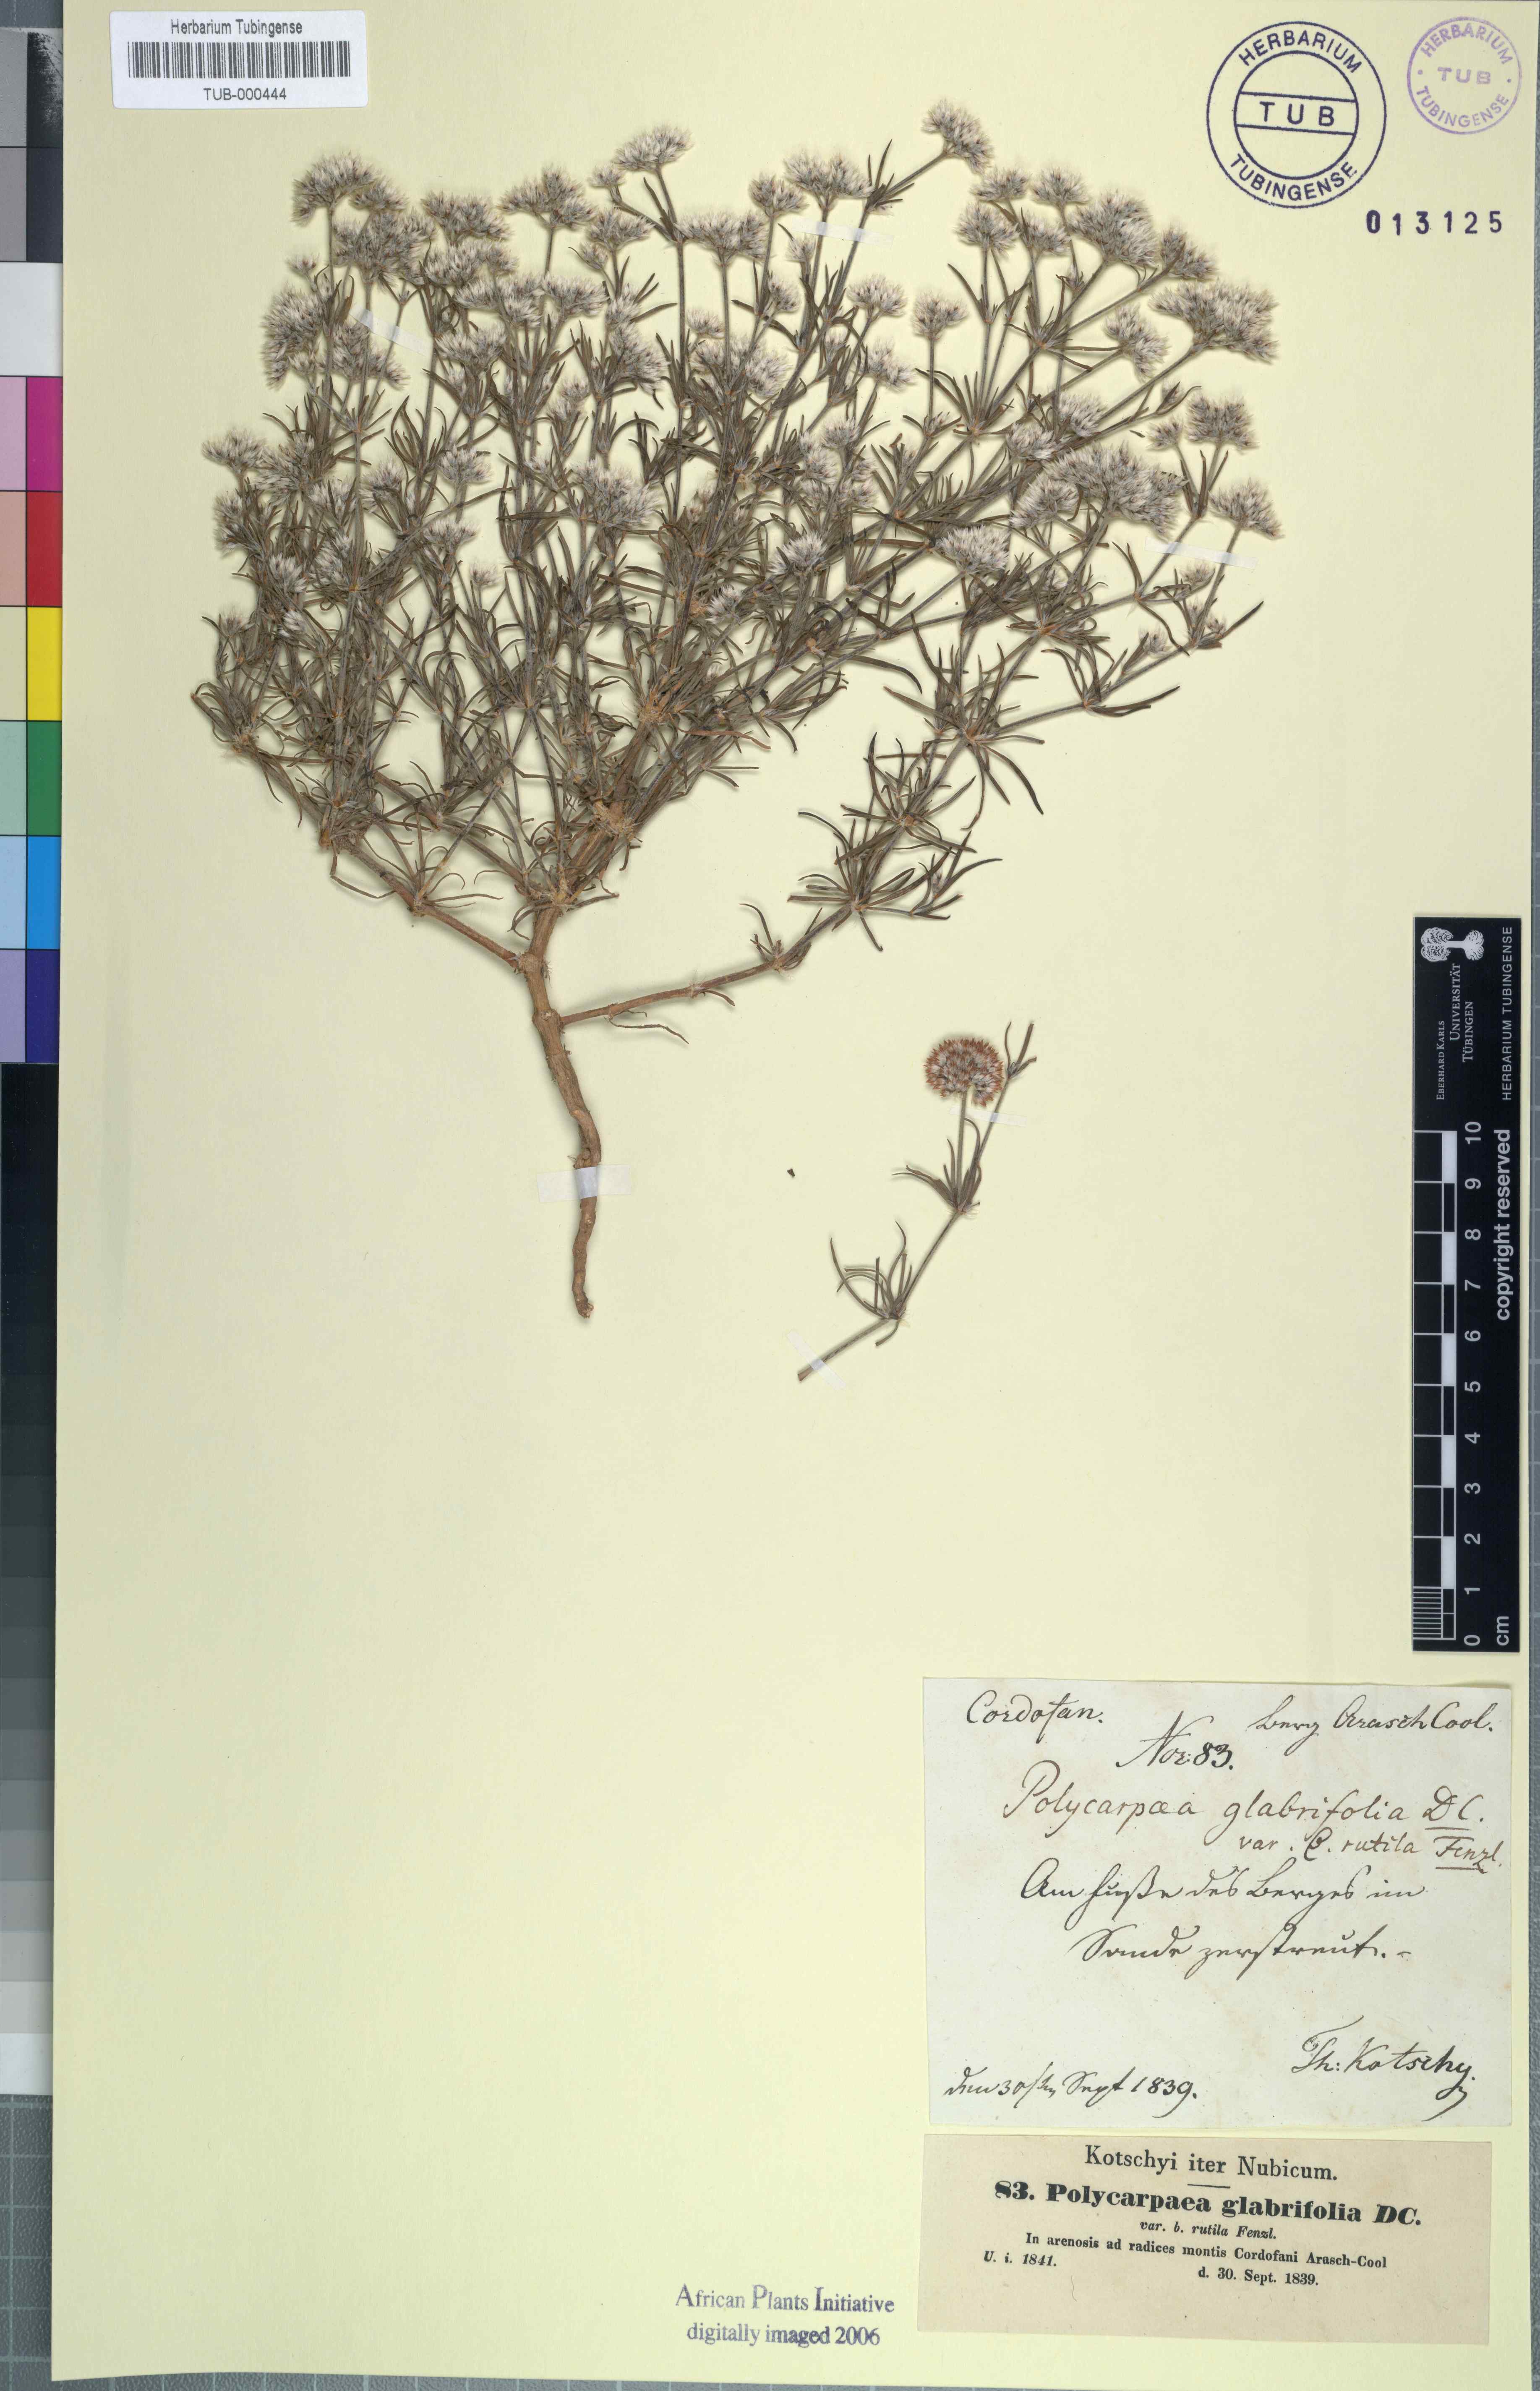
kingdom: Plantae
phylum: Tracheophyta
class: Magnoliopsida
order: Caryophyllales
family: Caryophyllaceae
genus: Polycarpaea
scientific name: Polycarpaea corymbosa
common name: Oldman's cap
